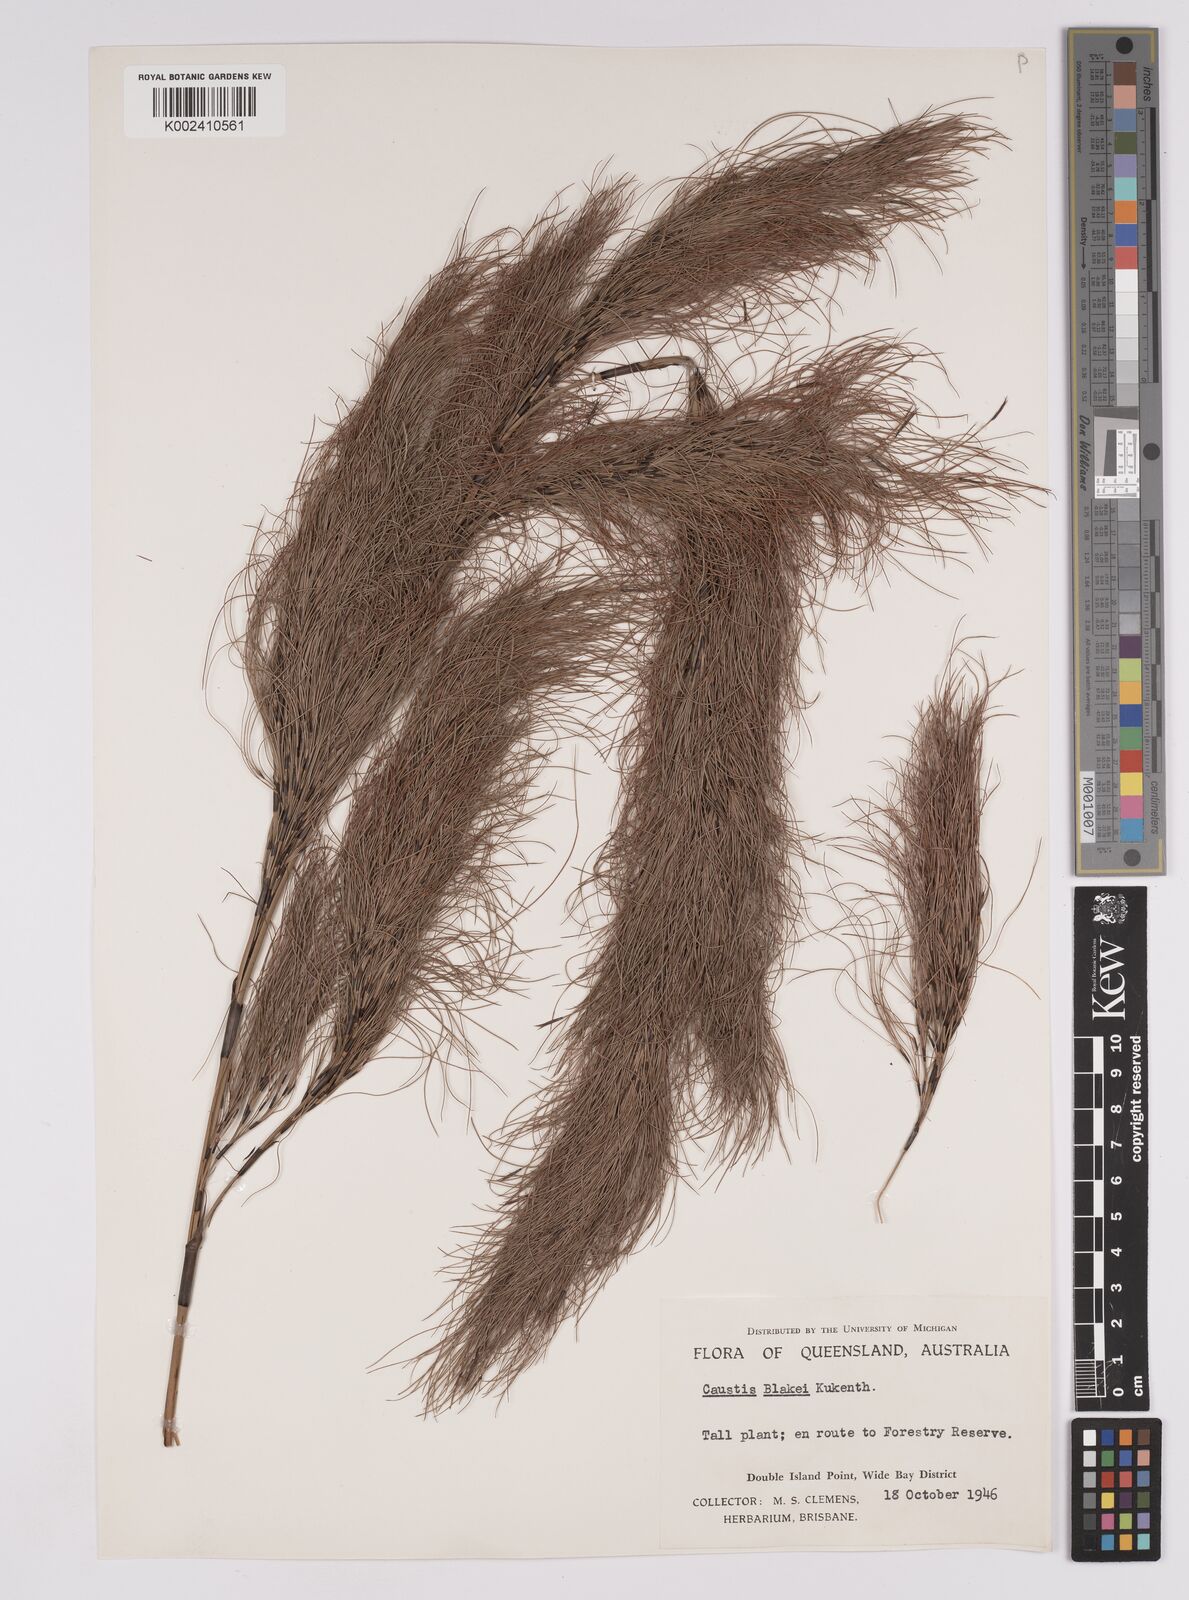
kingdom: Plantae
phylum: Tracheophyta
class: Liliopsida
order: Poales
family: Cyperaceae
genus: Caustis
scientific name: Caustis blakei
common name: Foxtail-fern
